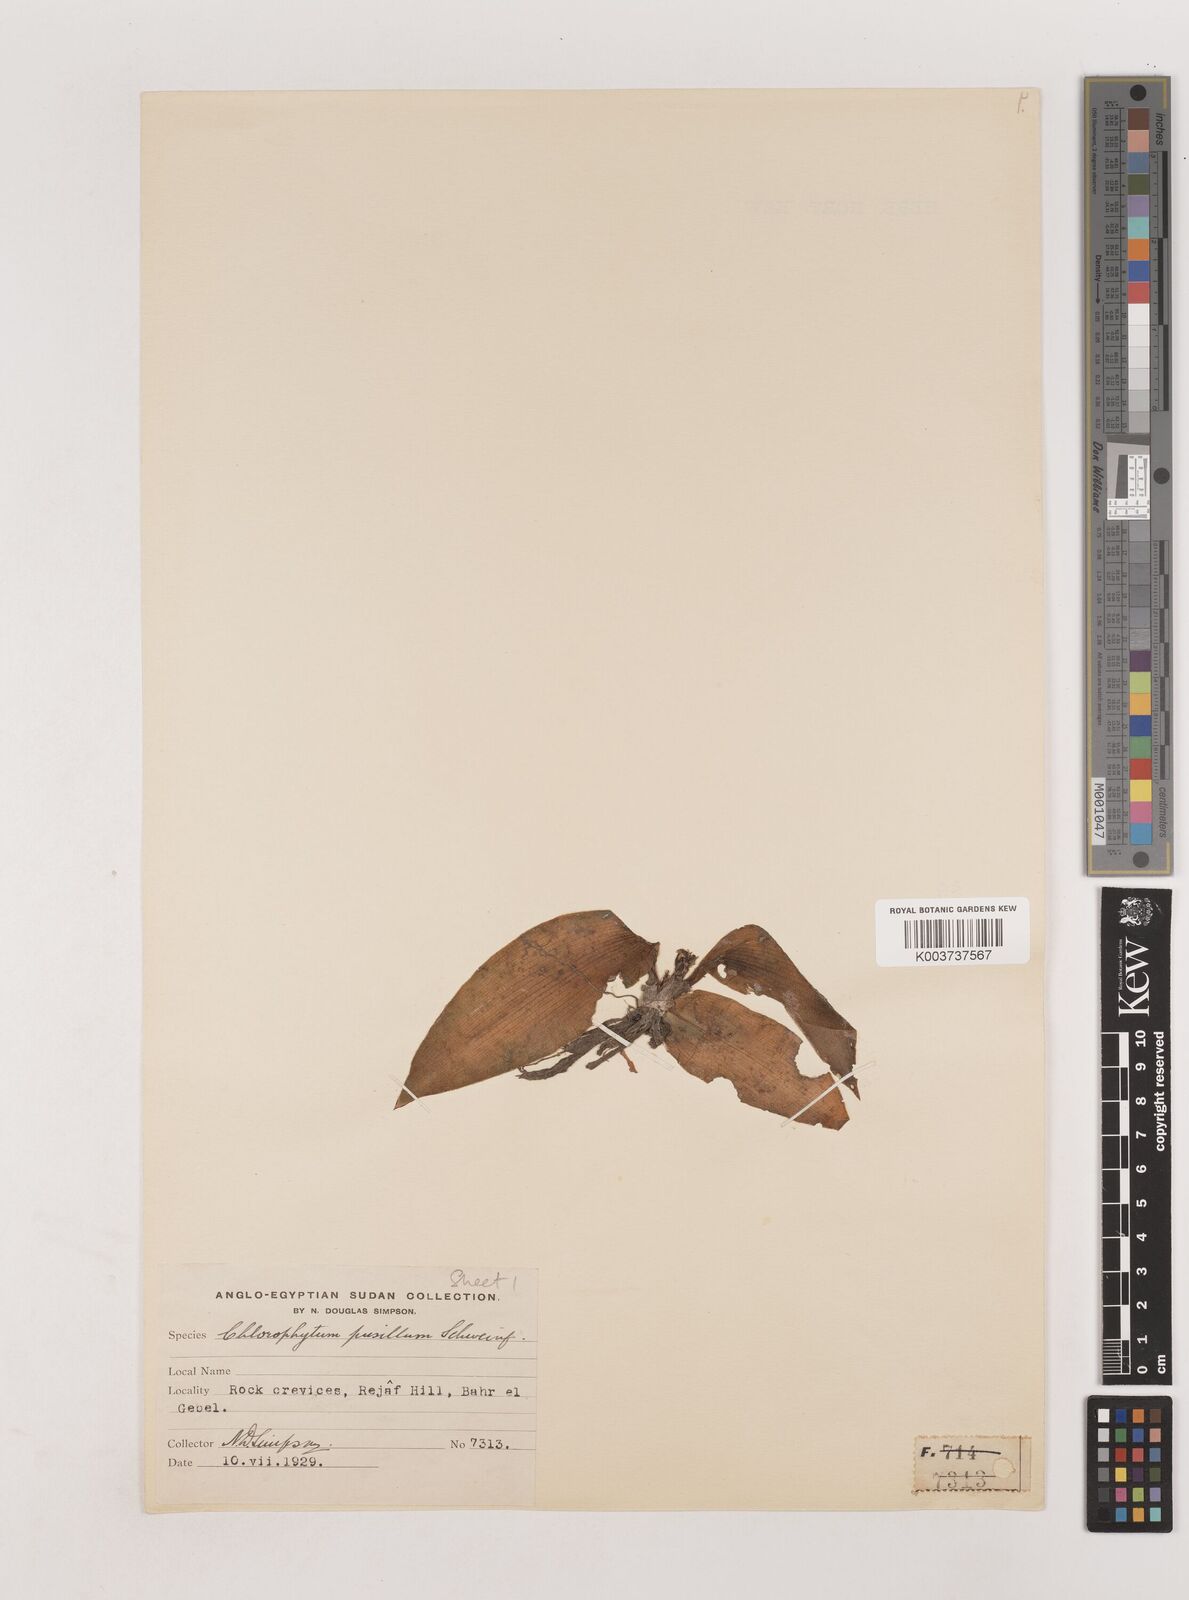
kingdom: Plantae
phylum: Tracheophyta
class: Liliopsida
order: Asparagales
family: Asparagaceae
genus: Chlorophytum
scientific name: Chlorophytum pusillum
